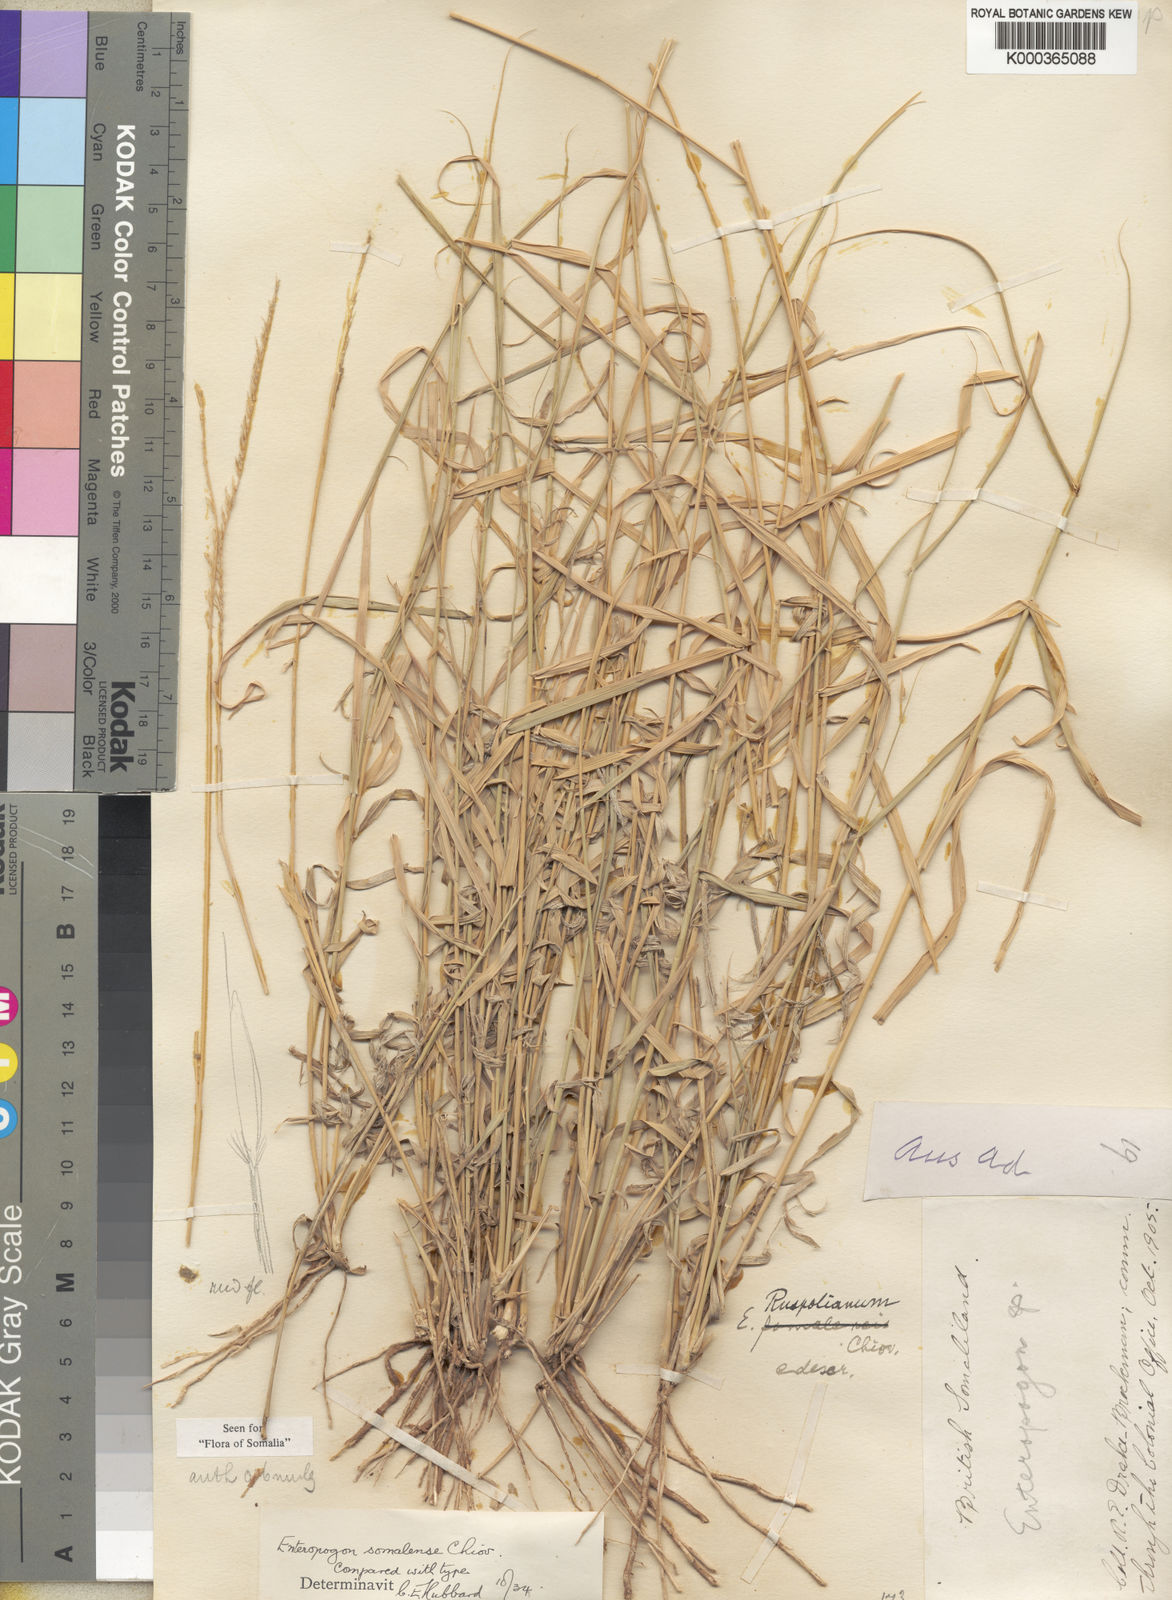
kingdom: Plantae
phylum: Tracheophyta
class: Liliopsida
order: Poales
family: Poaceae
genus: Enteropogon
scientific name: Enteropogon rupestris
